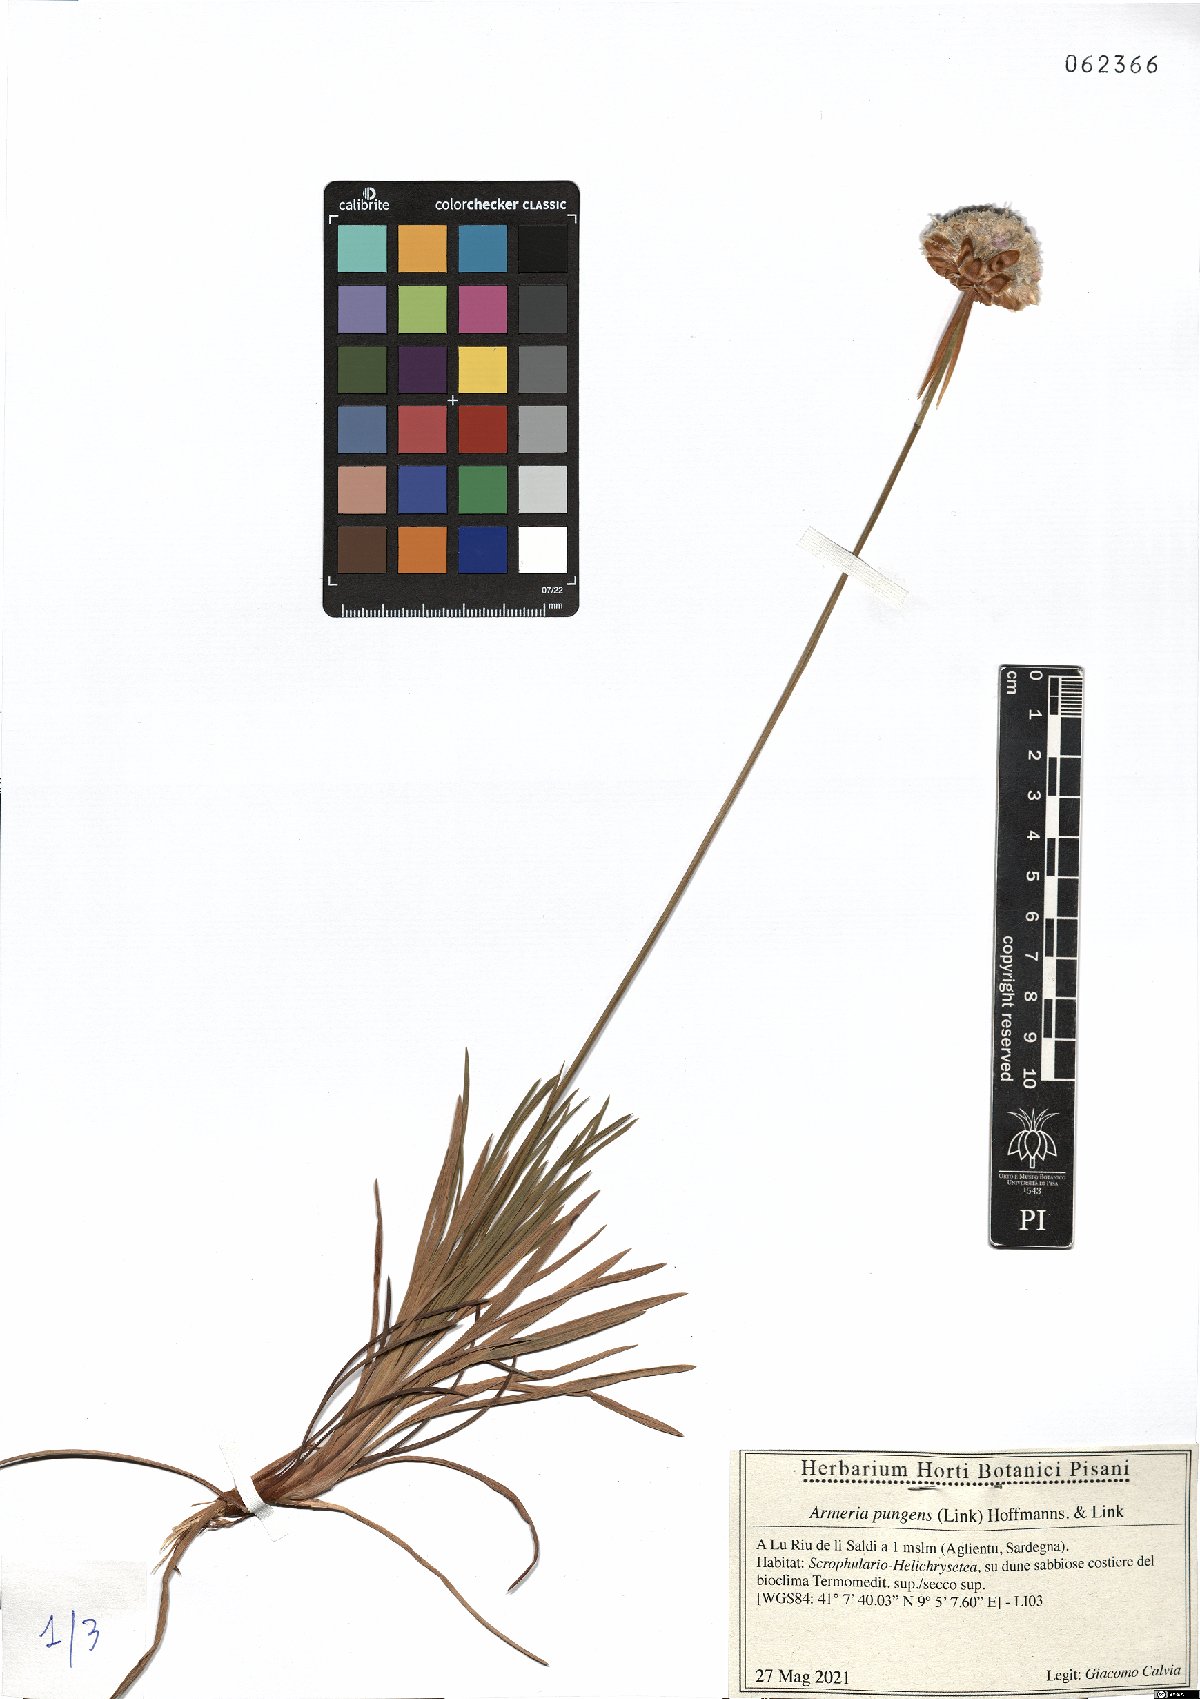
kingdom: Plantae
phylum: Tracheophyta
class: Magnoliopsida
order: Caryophyllales
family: Plumbaginaceae
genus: Armeria
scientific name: Armeria pungens
